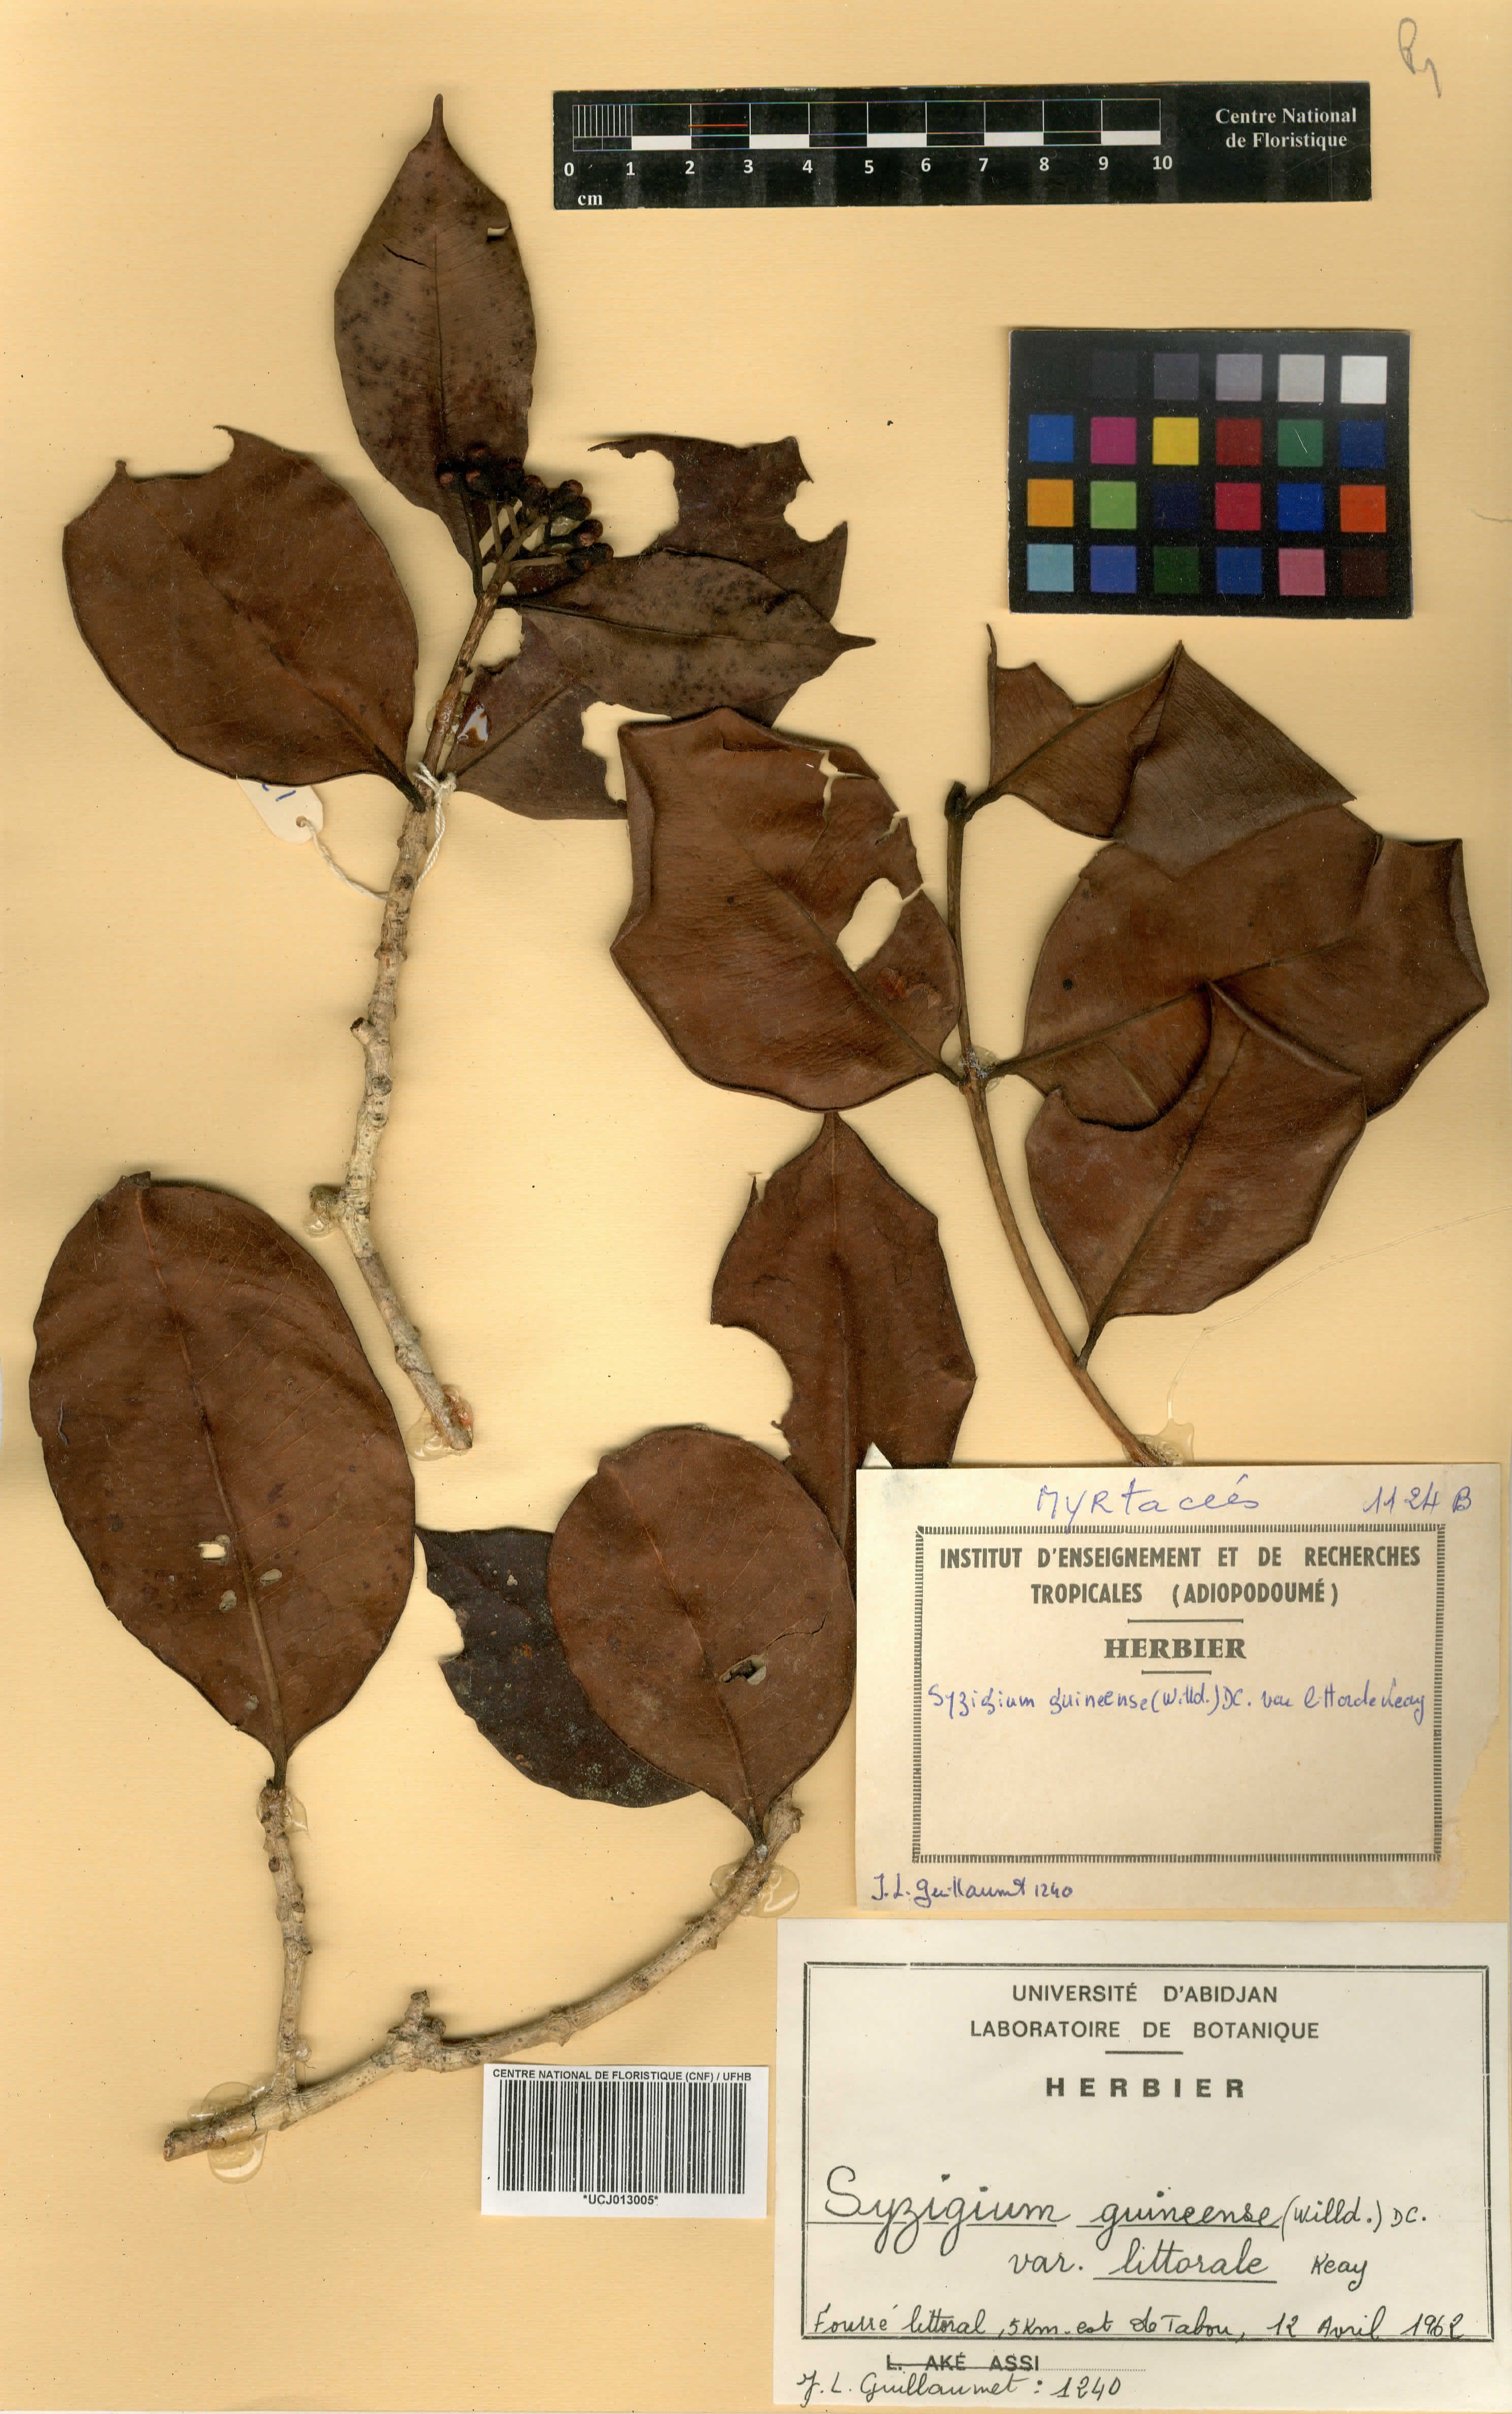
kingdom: Plantae
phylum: Tracheophyta
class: Magnoliopsida
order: Myrtales
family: Myrtaceae
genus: Syzygium
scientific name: Syzygium guineense
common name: Water-pear
